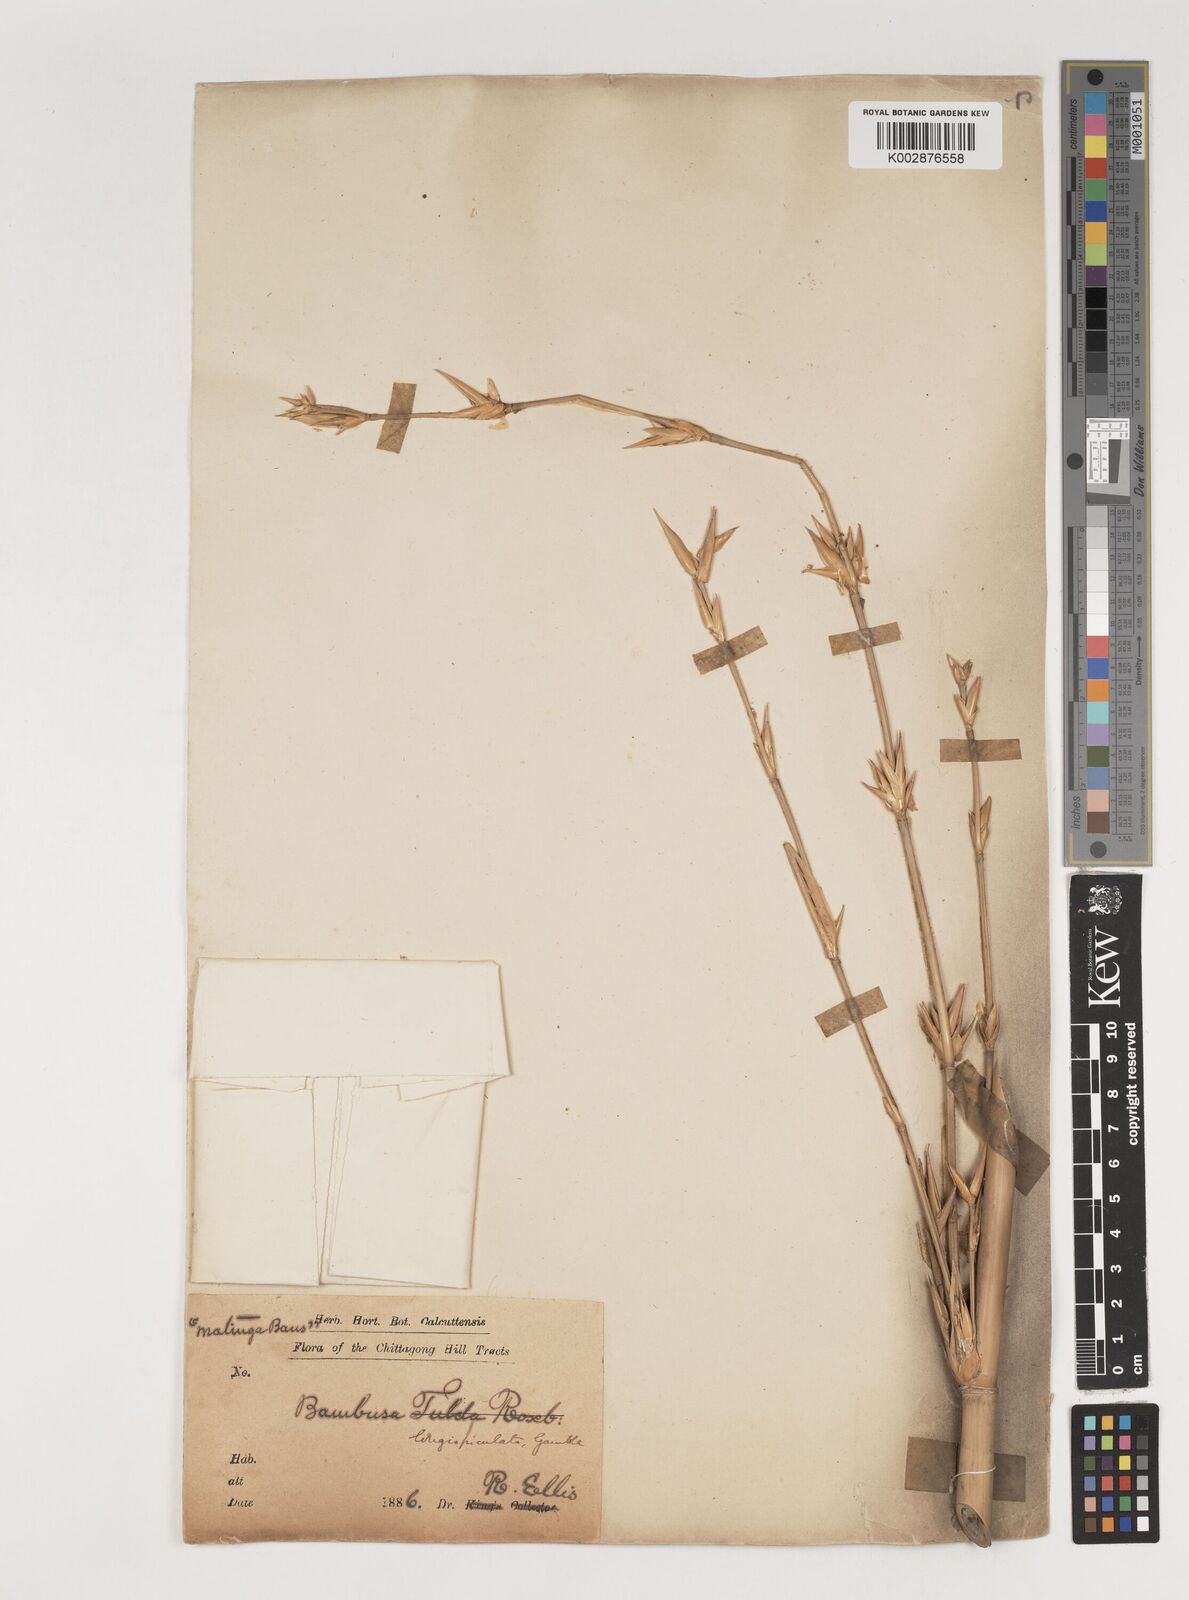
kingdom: Plantae
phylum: Tracheophyta
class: Liliopsida
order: Poales
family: Poaceae
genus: Bambusa
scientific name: Bambusa longispiculata
